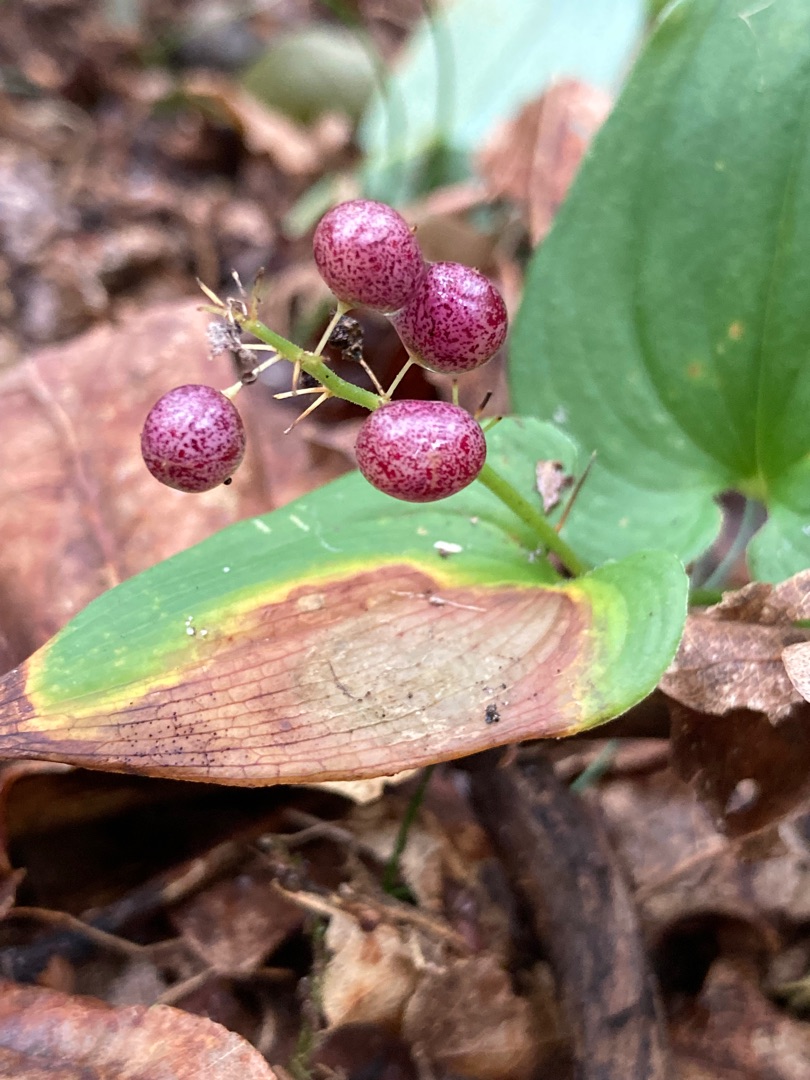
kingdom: Plantae
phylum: Tracheophyta
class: Liliopsida
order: Asparagales
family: Asparagaceae
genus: Maianthemum
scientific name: Maianthemum bifolium
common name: Majblomst
